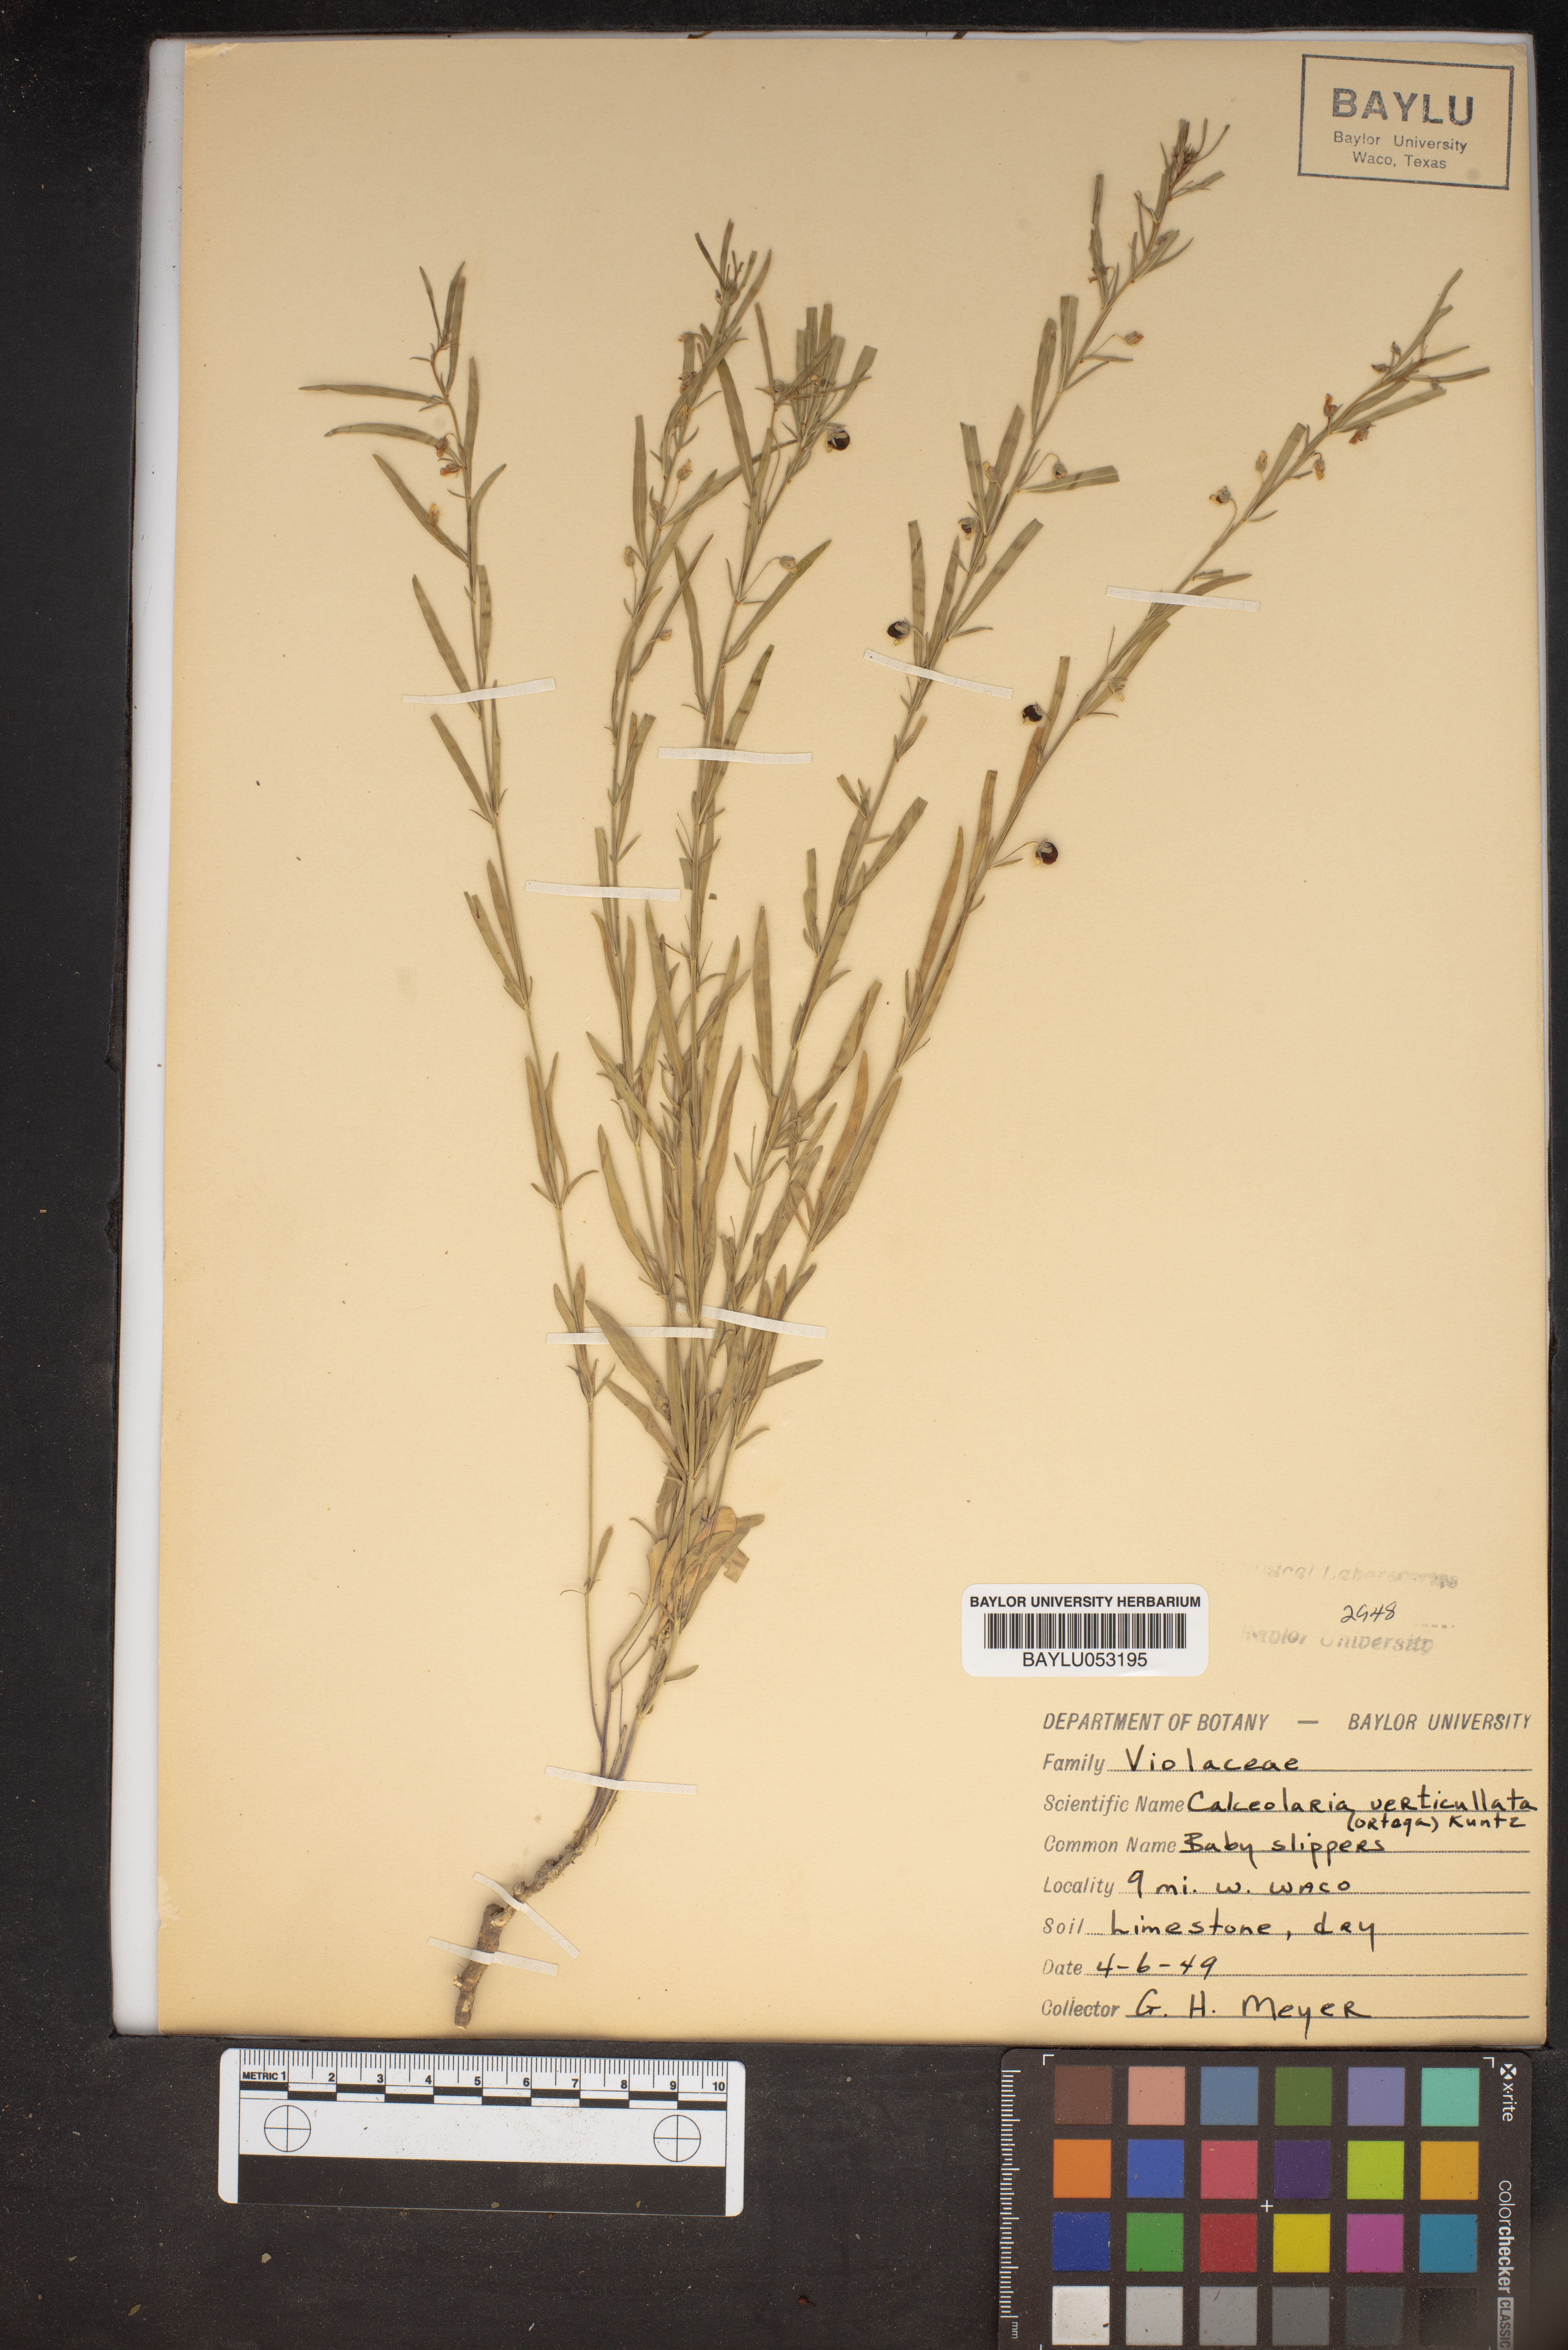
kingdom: Plantae
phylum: Tracheophyta
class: Magnoliopsida
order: Malpighiales
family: Violaceae
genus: Pombalia
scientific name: Pombalia verticillata
